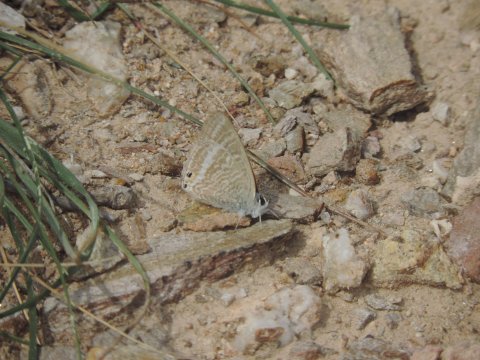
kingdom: Animalia
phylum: Arthropoda
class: Insecta
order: Lepidoptera
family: Lycaenidae
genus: Lampides
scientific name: Lampides boeticus
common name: Pea Blue
